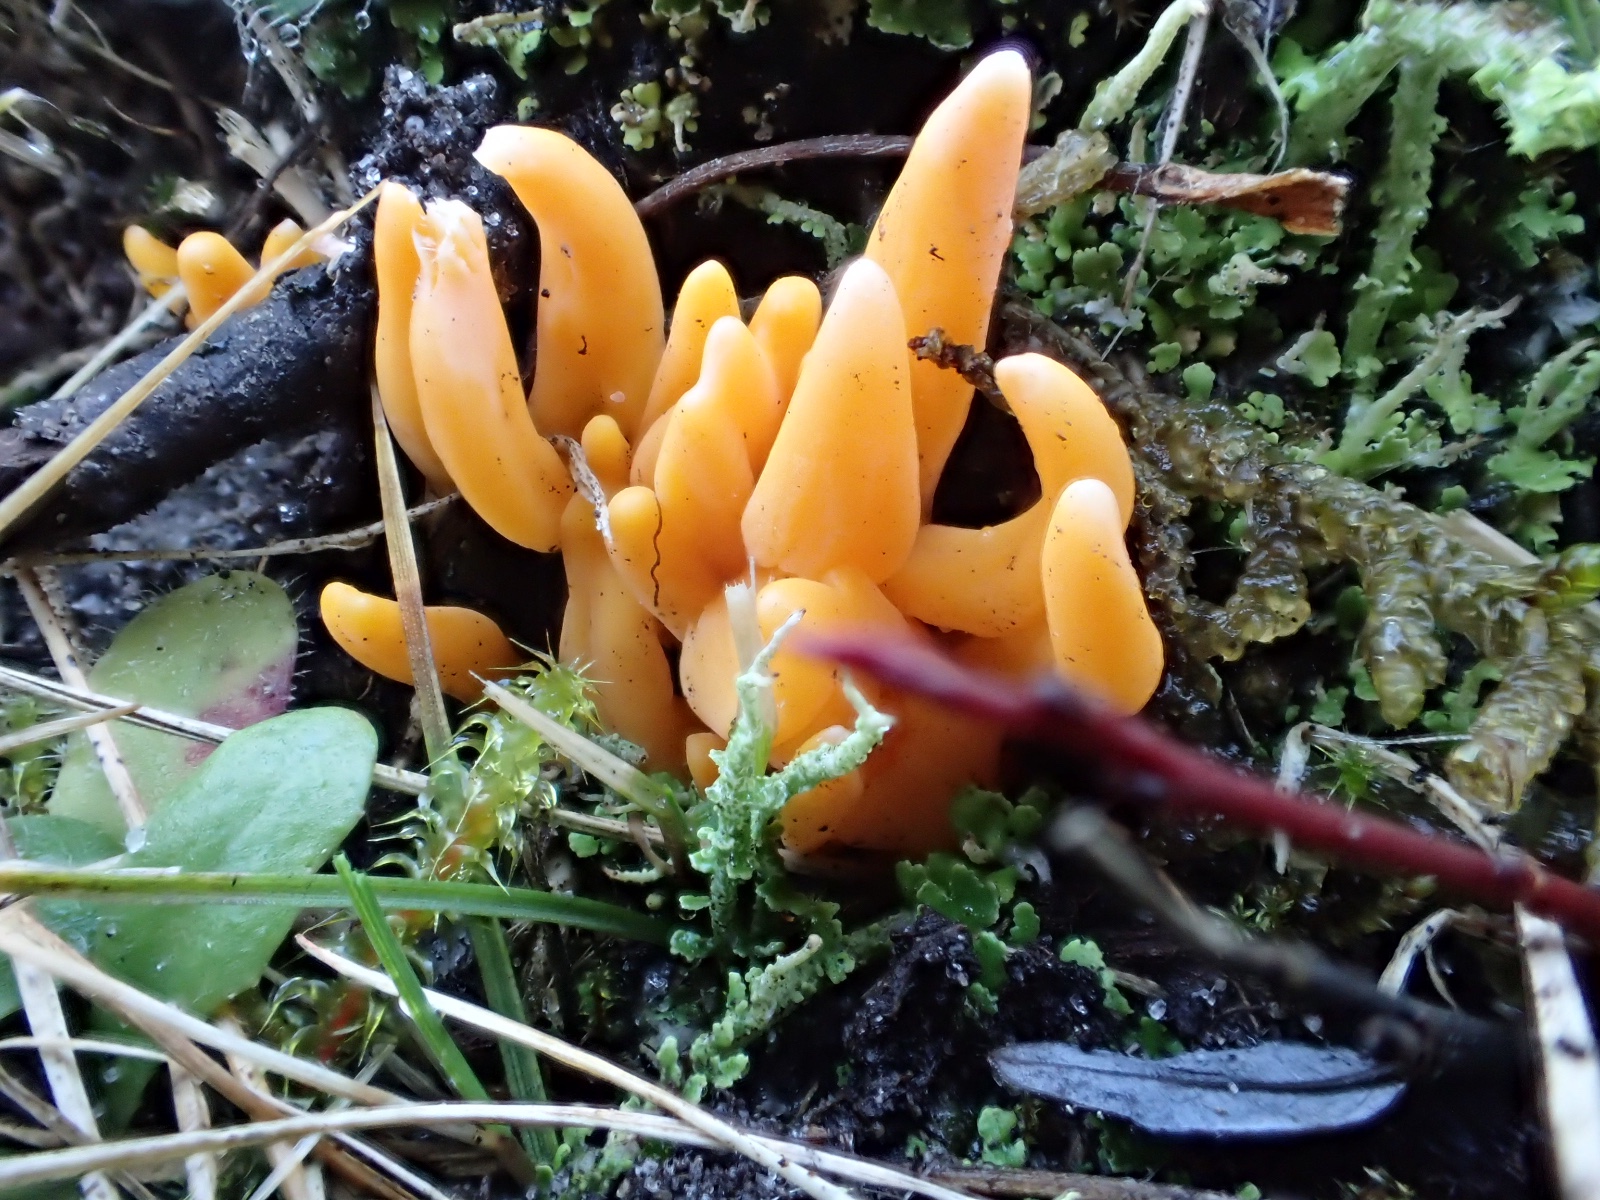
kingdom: Fungi
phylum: Basidiomycota
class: Agaricomycetes
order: Agaricales
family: Clavariaceae
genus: Clavulinopsis
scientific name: Clavulinopsis luteoalba
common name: abrikos-køllesvamp
